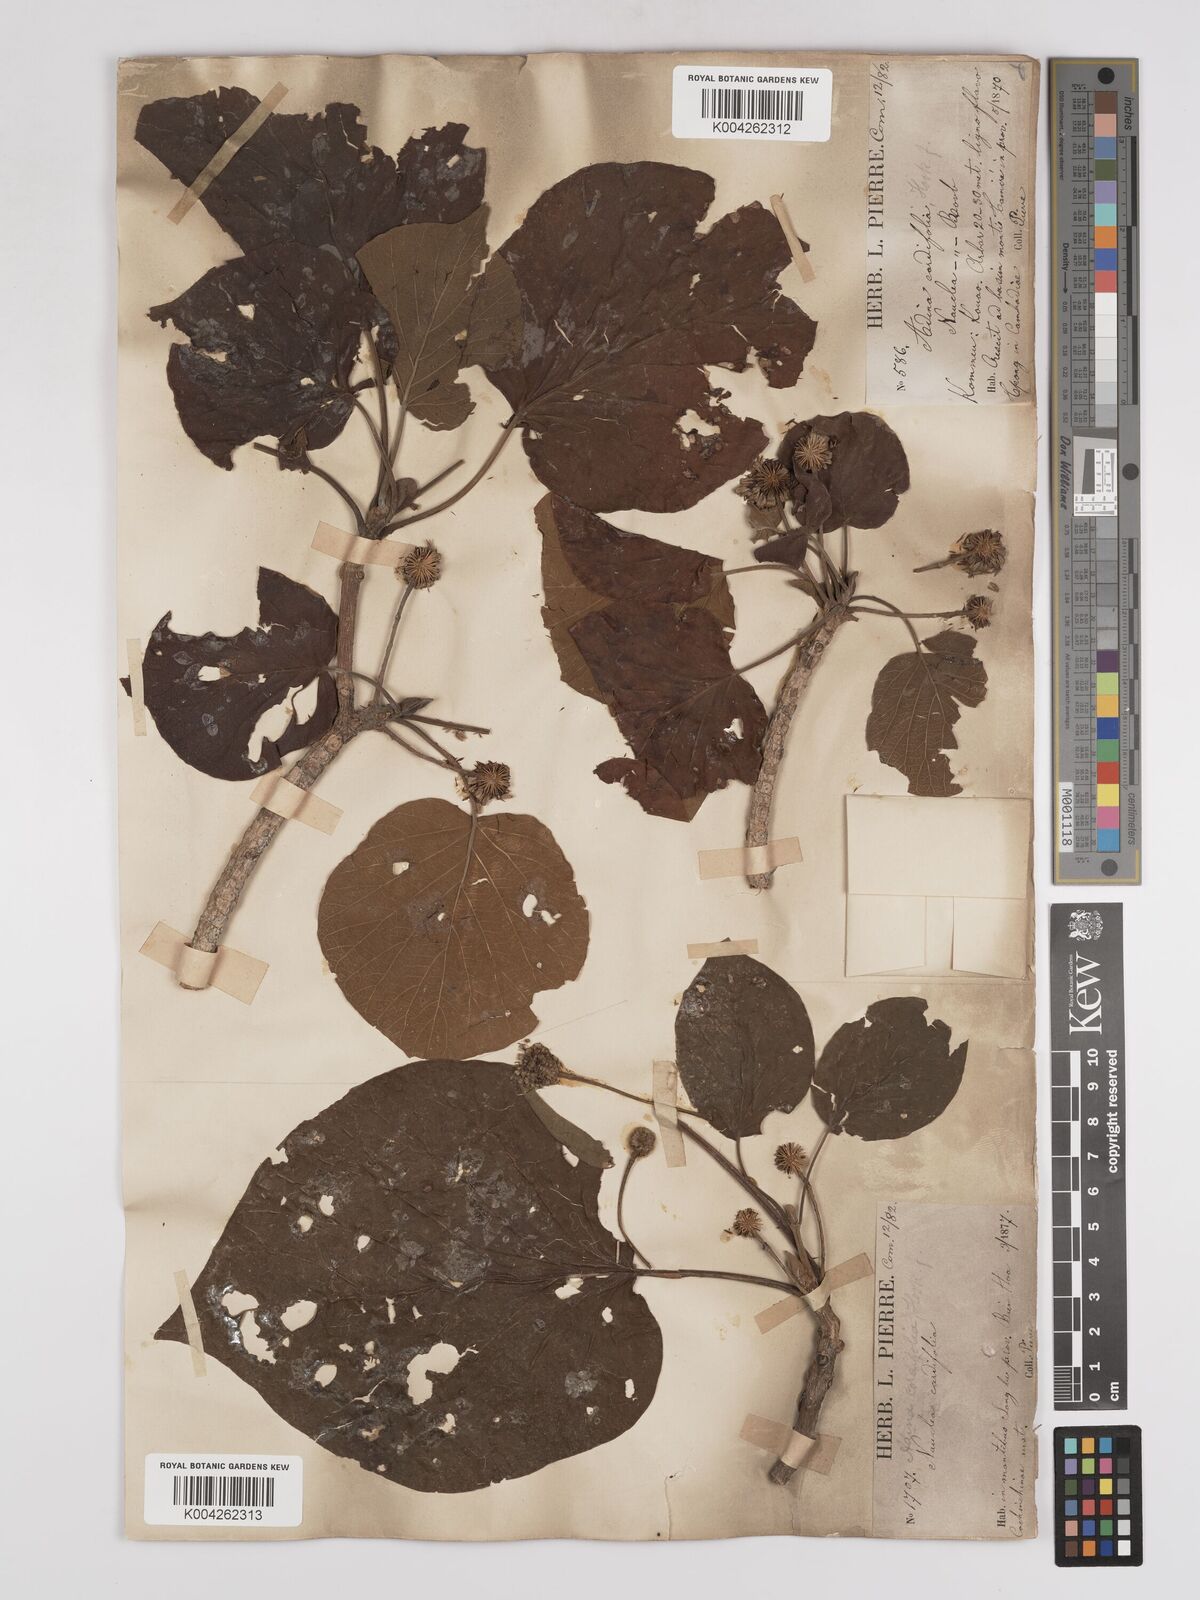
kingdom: Plantae
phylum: Tracheophyta
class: Magnoliopsida
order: Gentianales
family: Rubiaceae
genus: Adina
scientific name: Adina cordifolia
